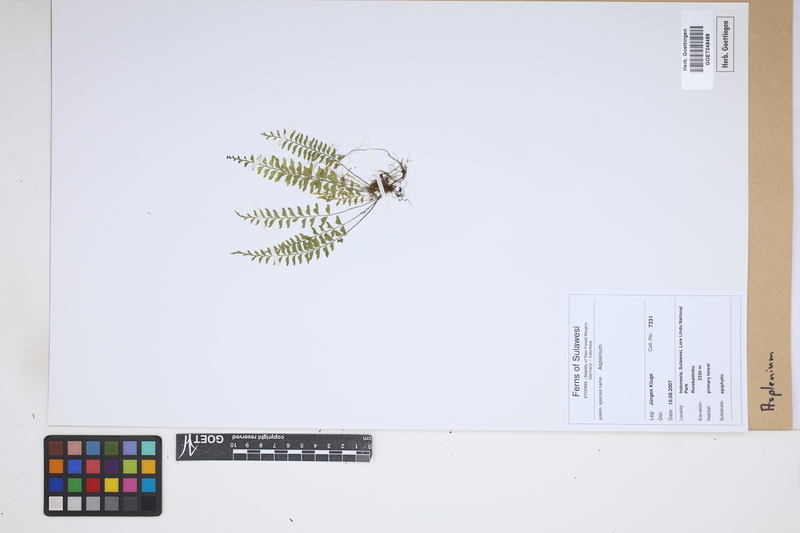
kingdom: Plantae
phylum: Tracheophyta
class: Polypodiopsida
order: Polypodiales
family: Aspleniaceae
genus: Asplenium
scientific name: Asplenium
